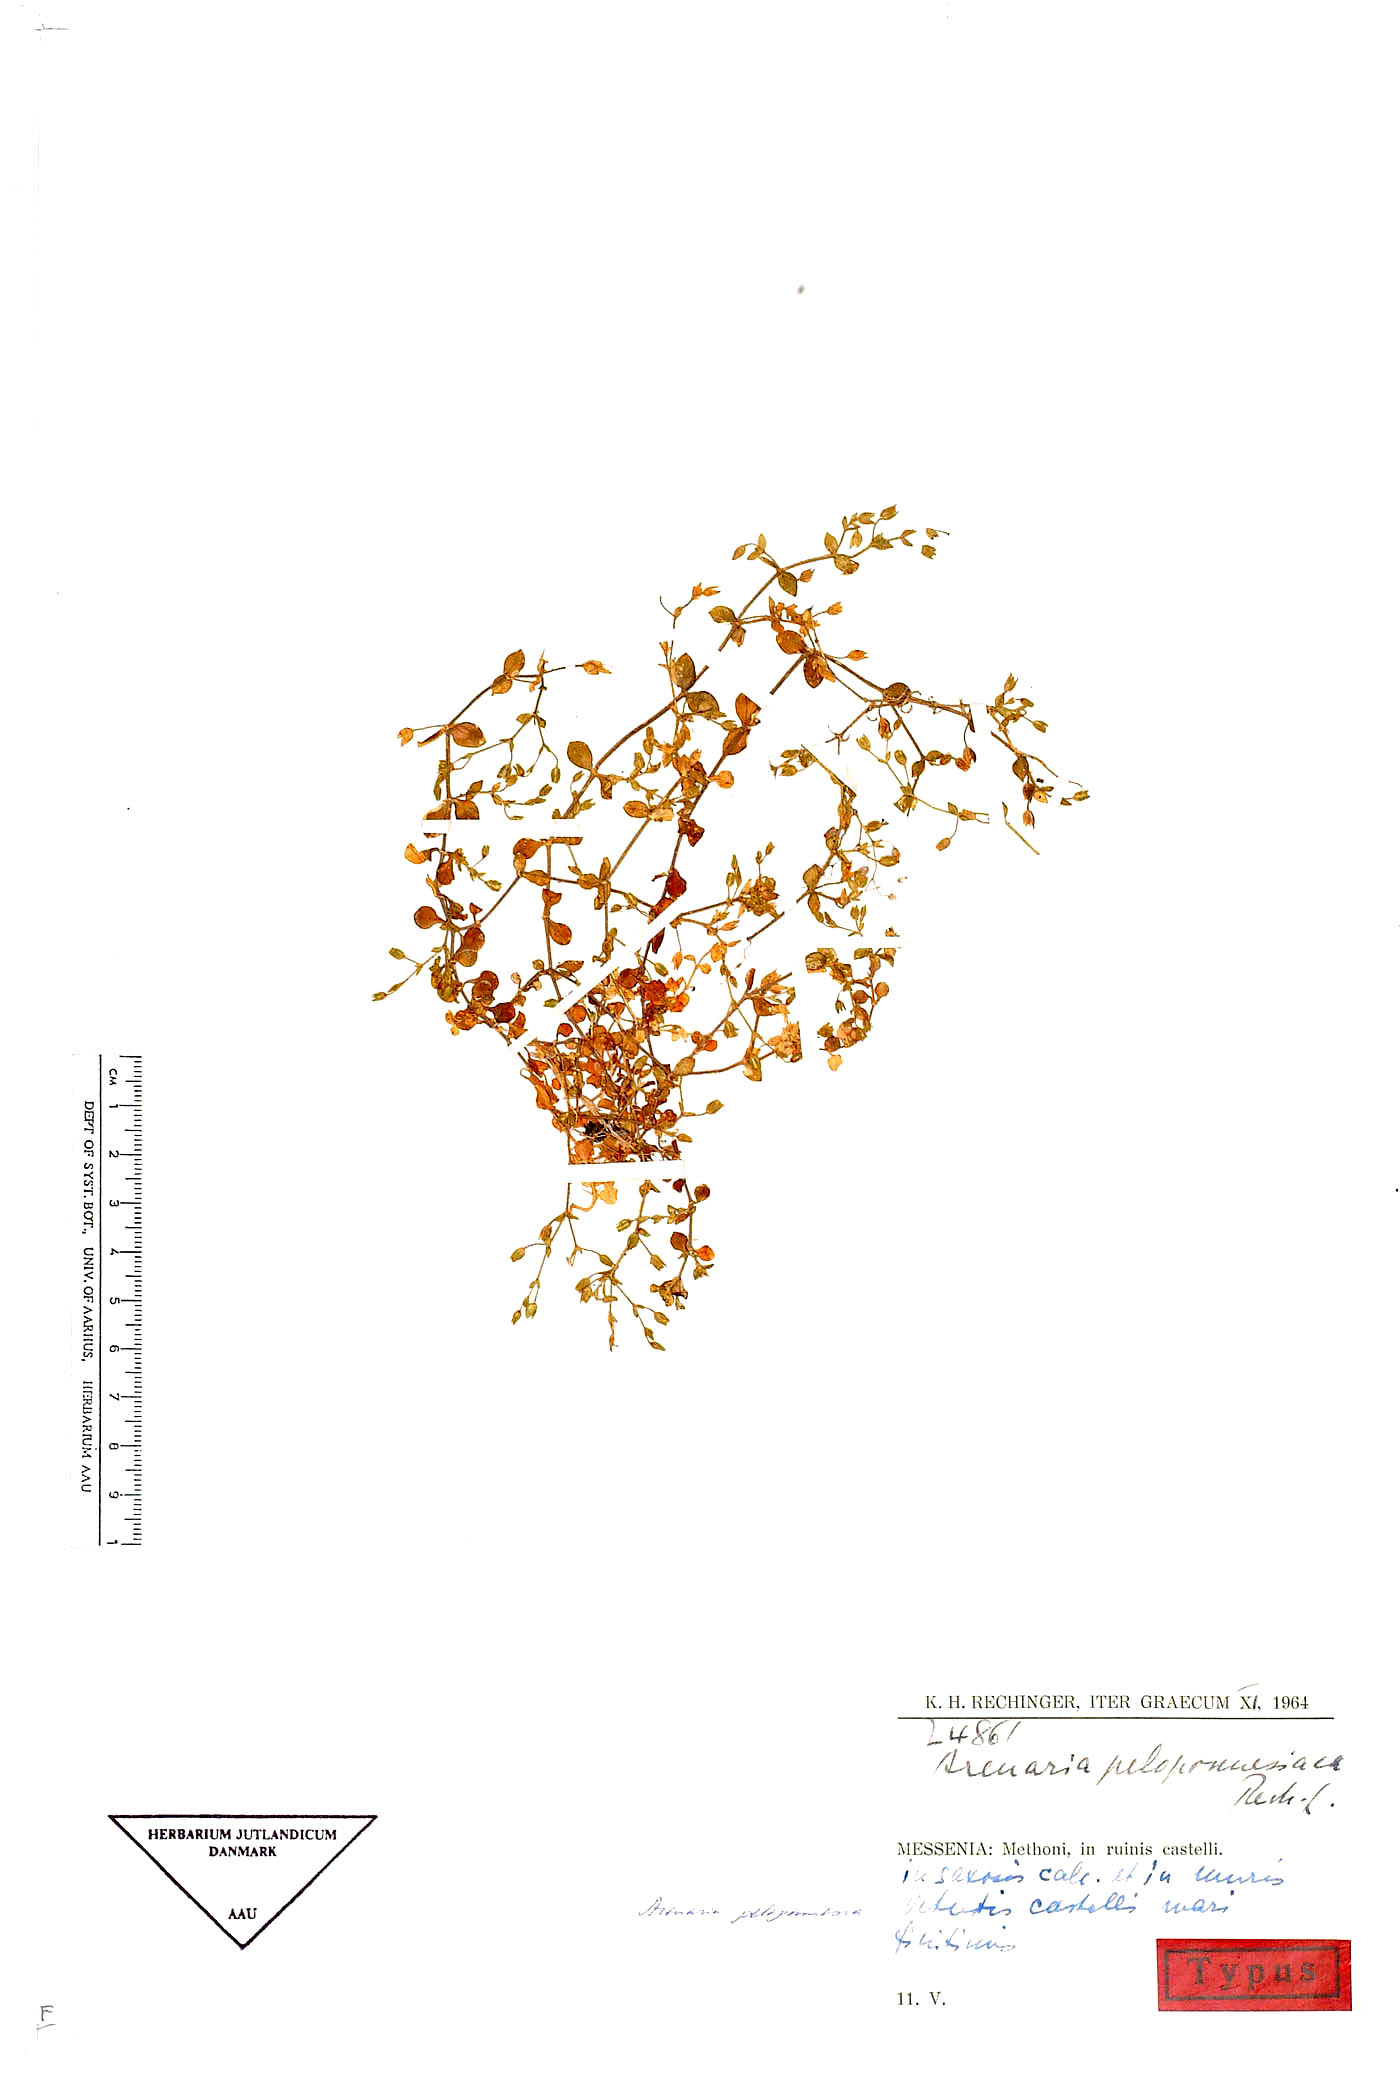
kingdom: Plantae
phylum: Tracheophyta
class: Magnoliopsida
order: Caryophyllales
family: Caryophyllaceae
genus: Arenaria
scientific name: Arenaria leptoclados
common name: Thyme-leaved sandwort
